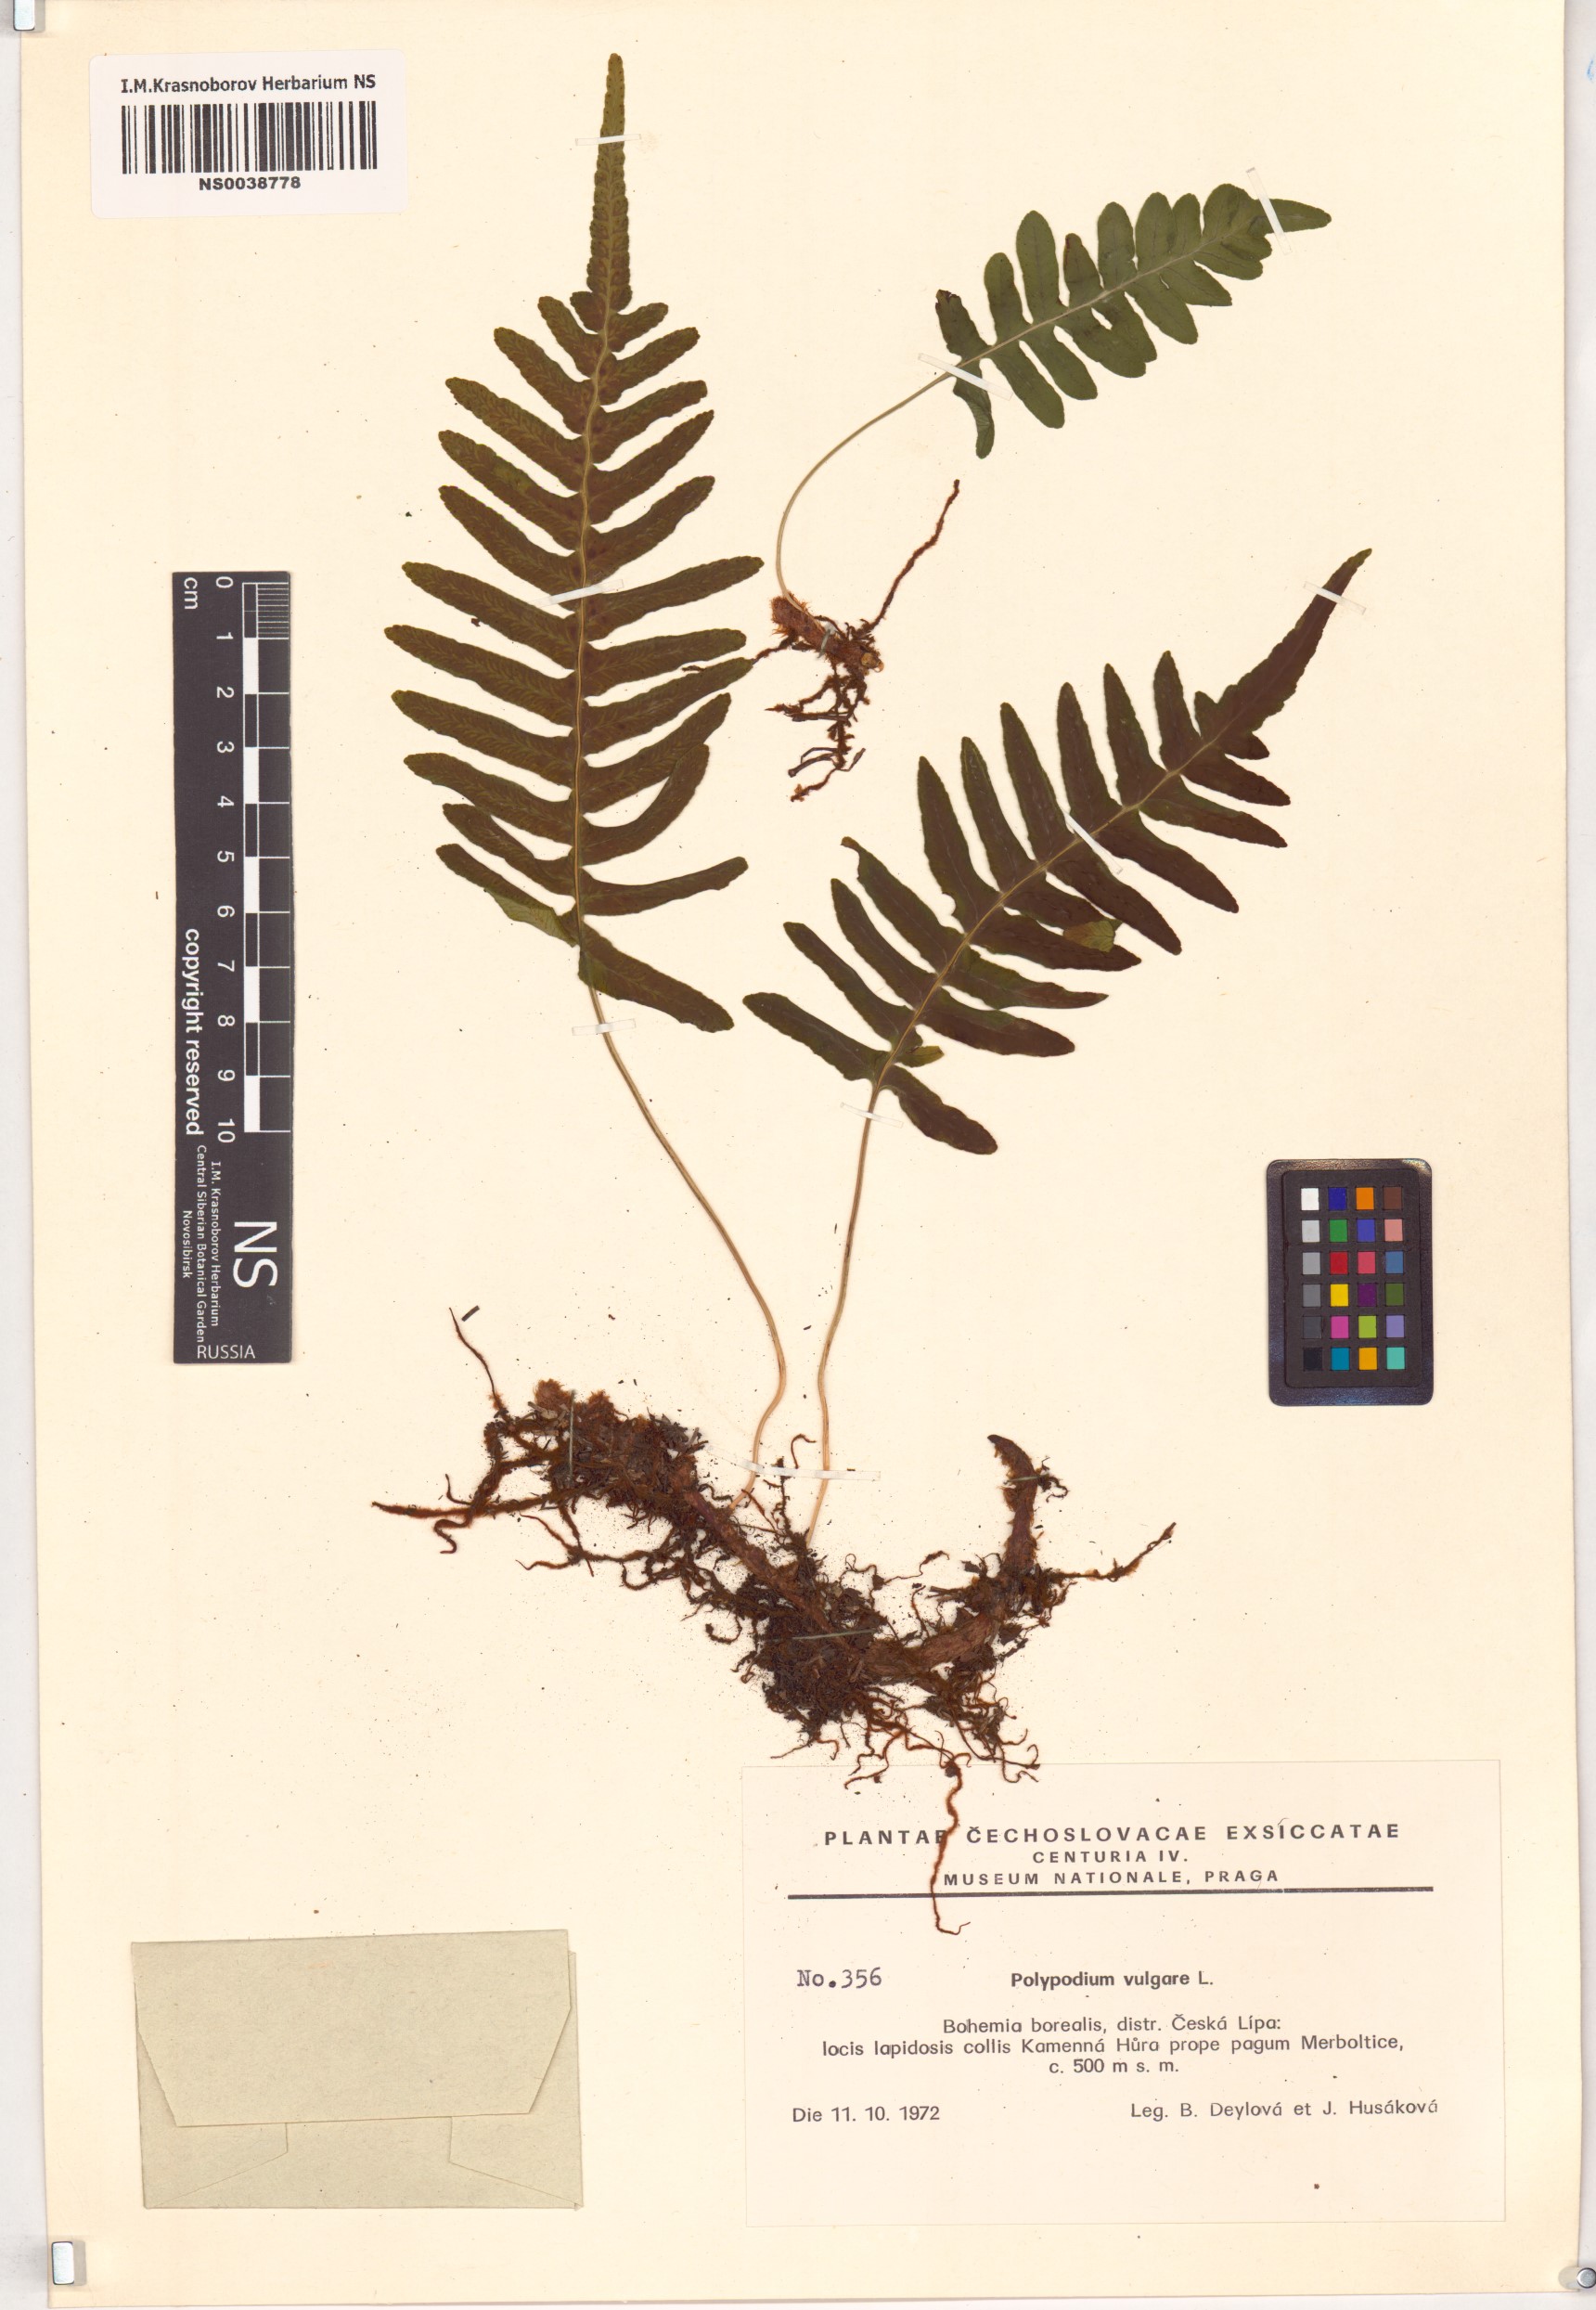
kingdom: Plantae
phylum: Tracheophyta
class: Polypodiopsida
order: Polypodiales
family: Polypodiaceae
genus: Polypodium
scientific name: Polypodium vulgare
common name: Common polypody
